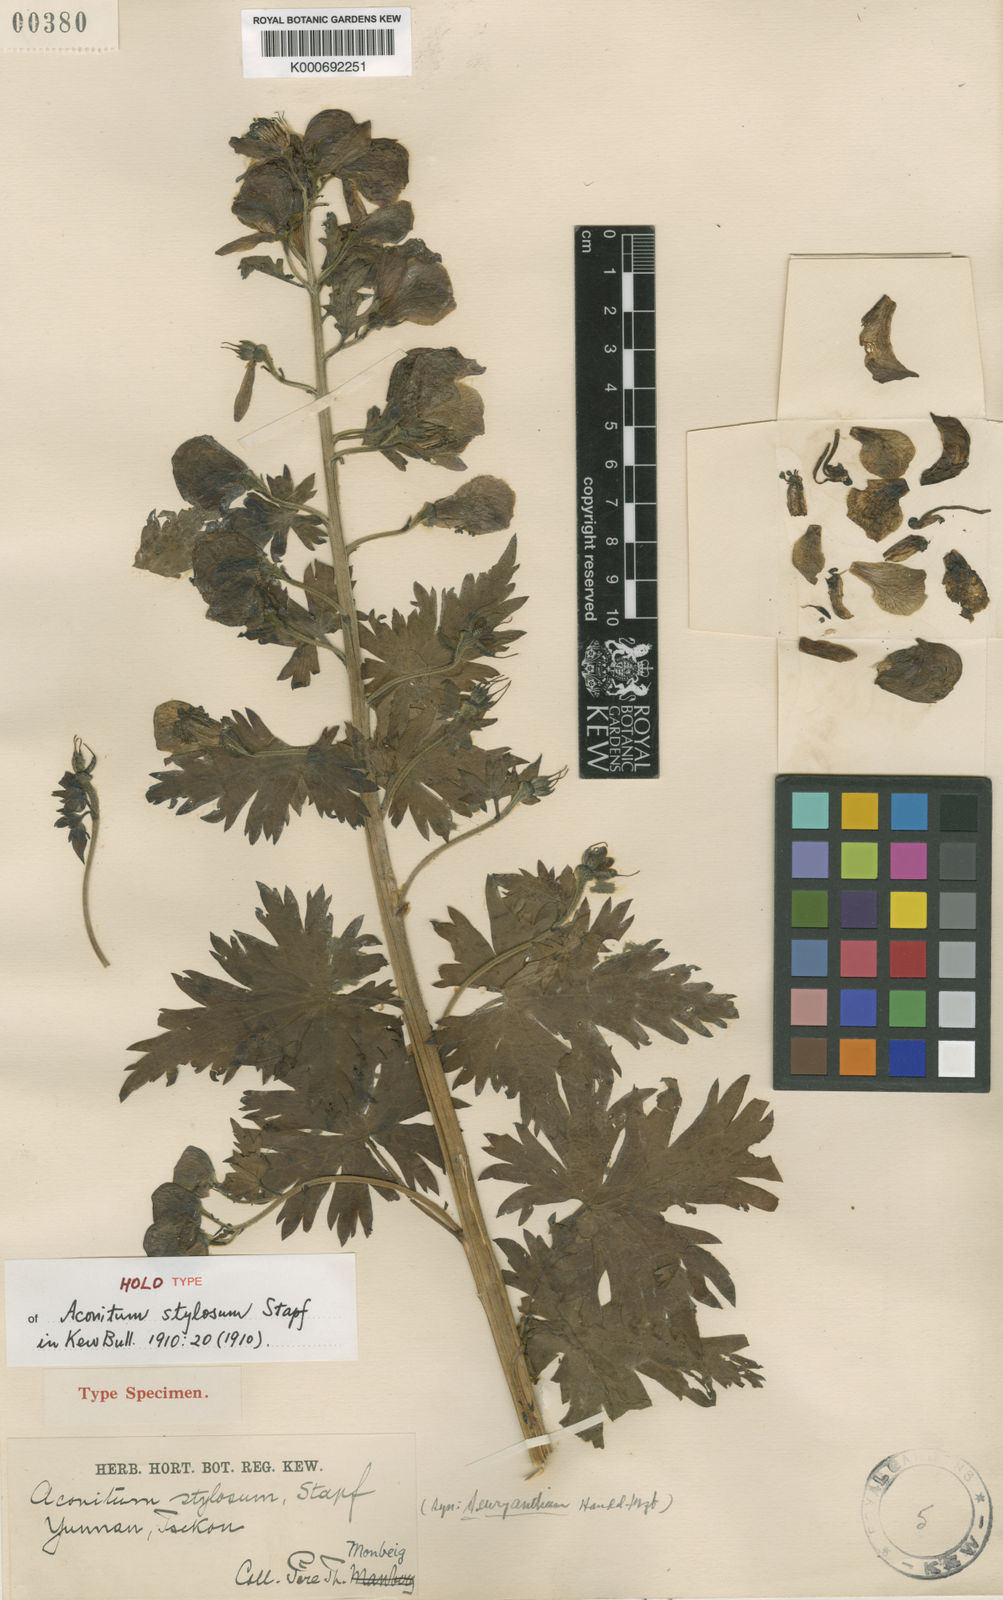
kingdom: Plantae
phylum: Tracheophyta
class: Magnoliopsida
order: Ranunculales
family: Ranunculaceae
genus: Aconitum
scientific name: Aconitum stylosum
